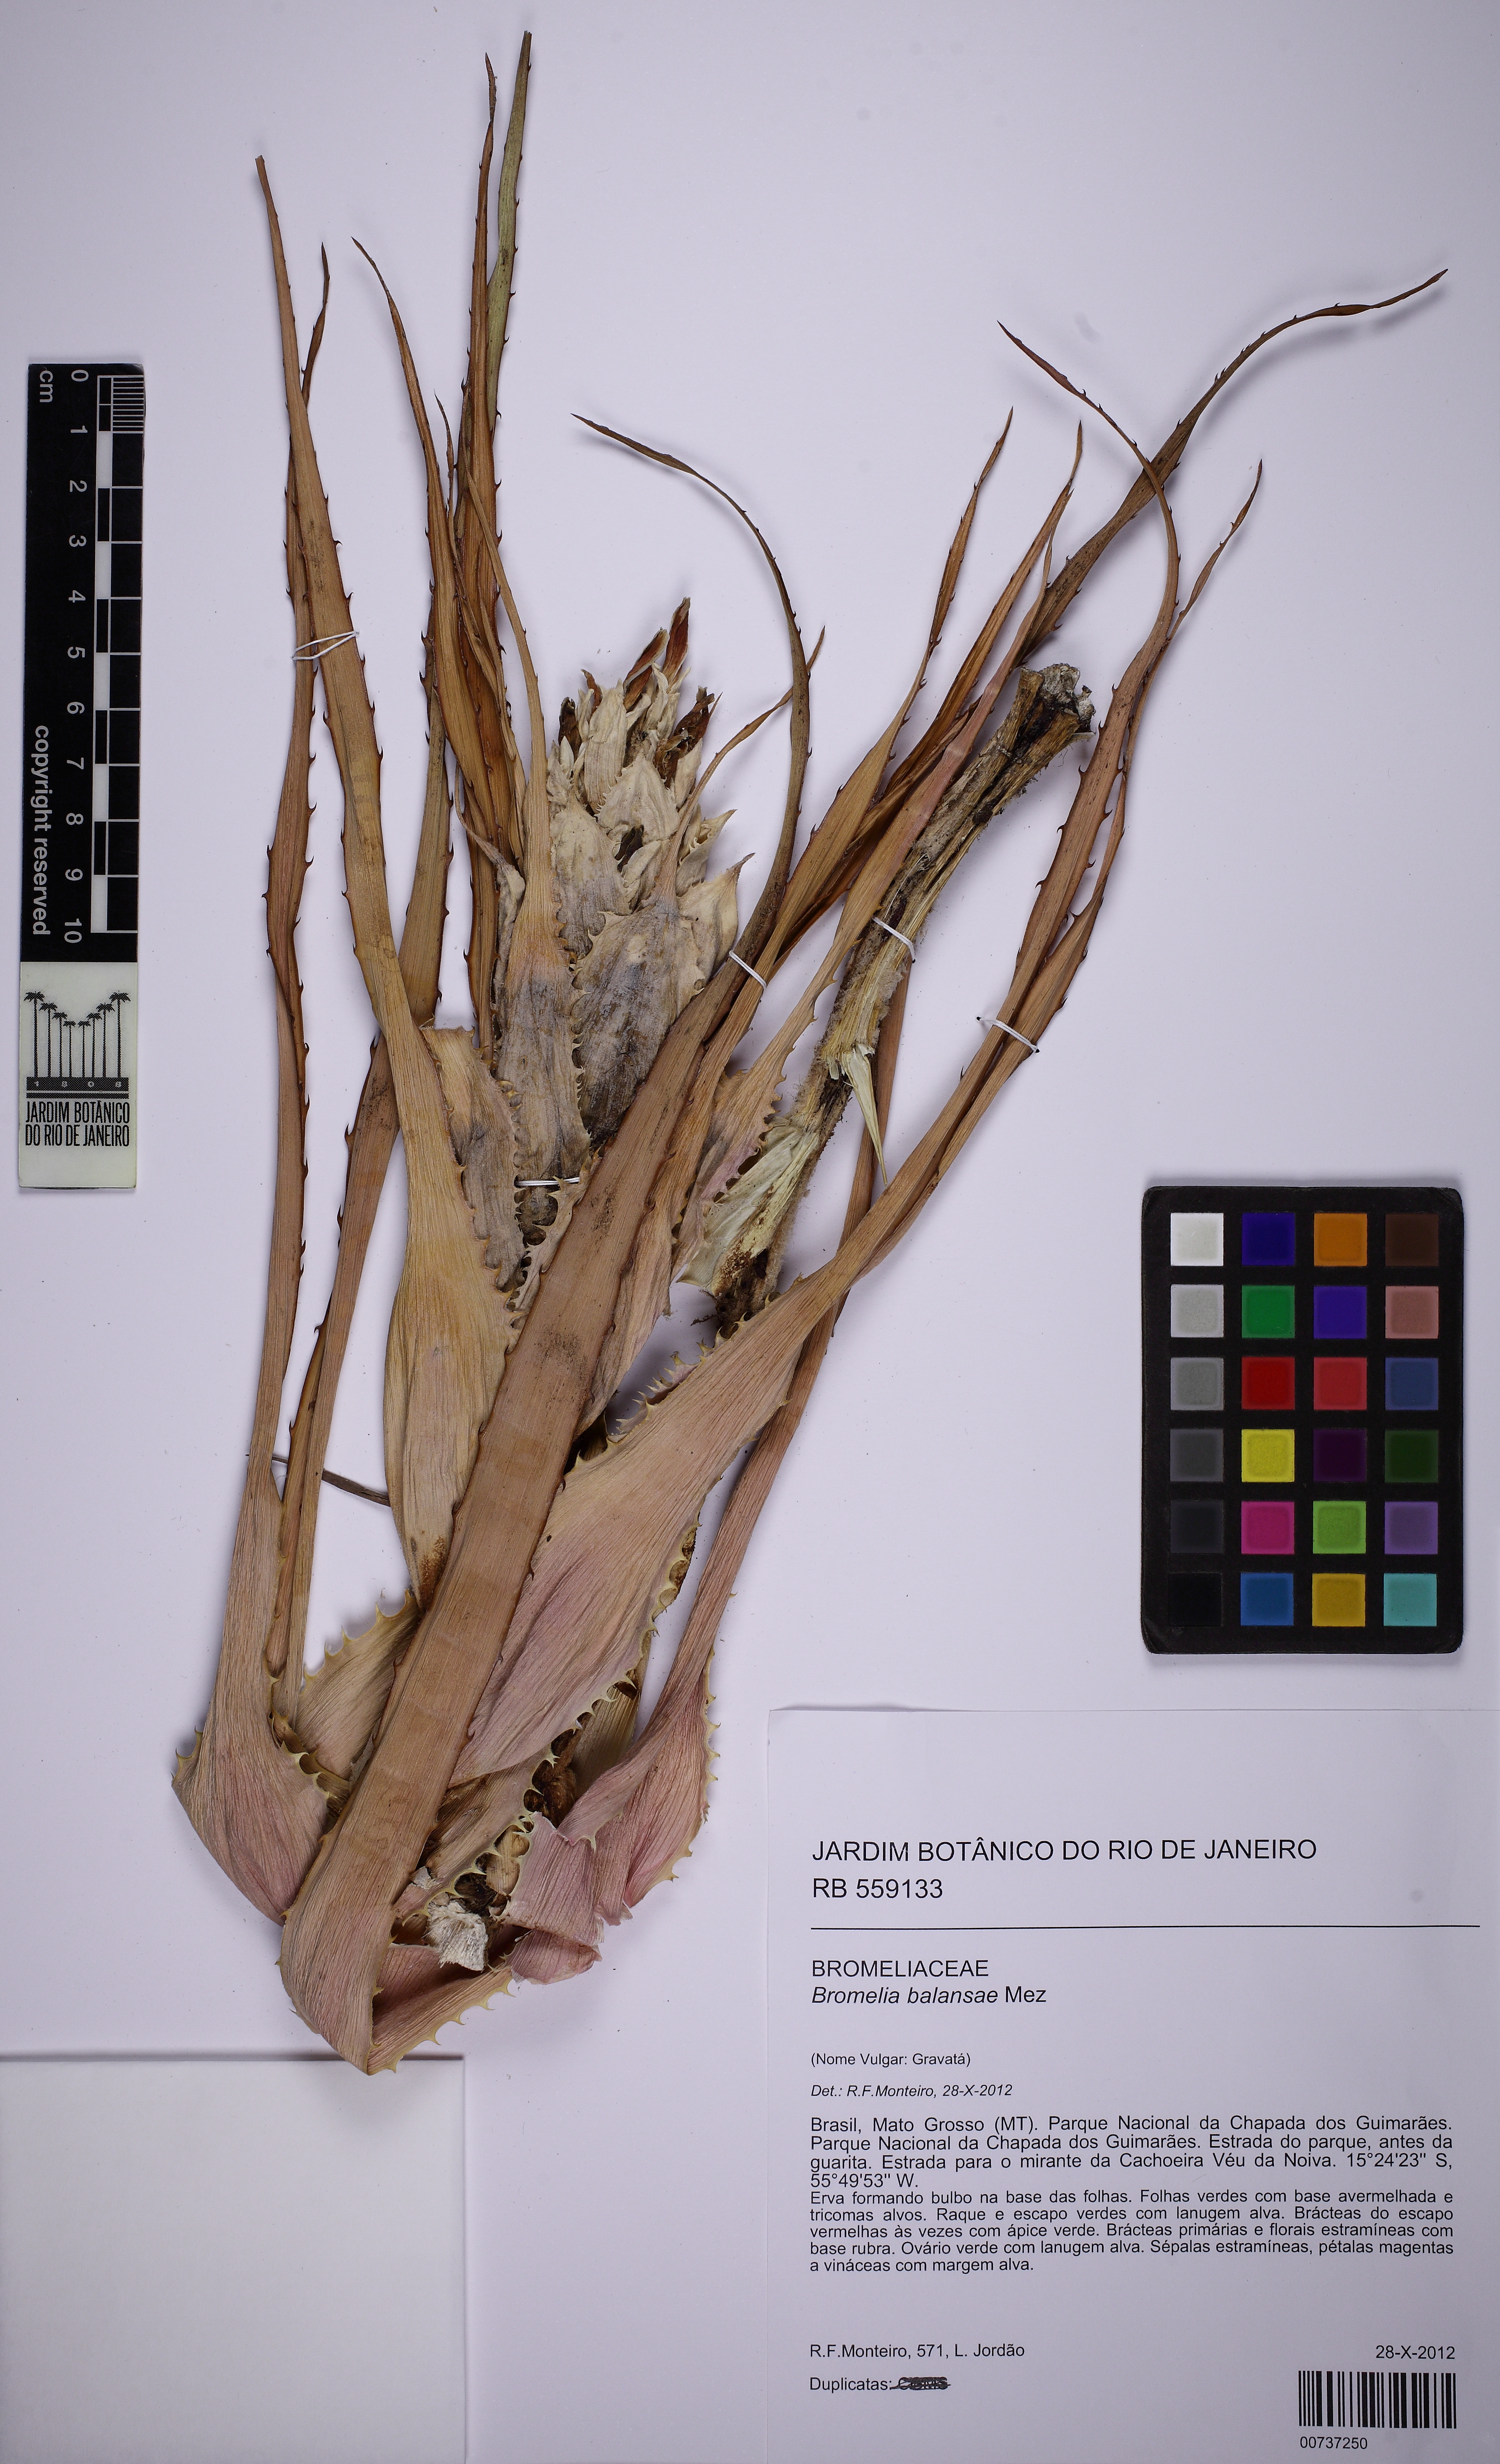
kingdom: Plantae
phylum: Tracheophyta
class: Liliopsida
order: Poales
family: Bromeliaceae
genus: Bromelia
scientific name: Bromelia balansae
